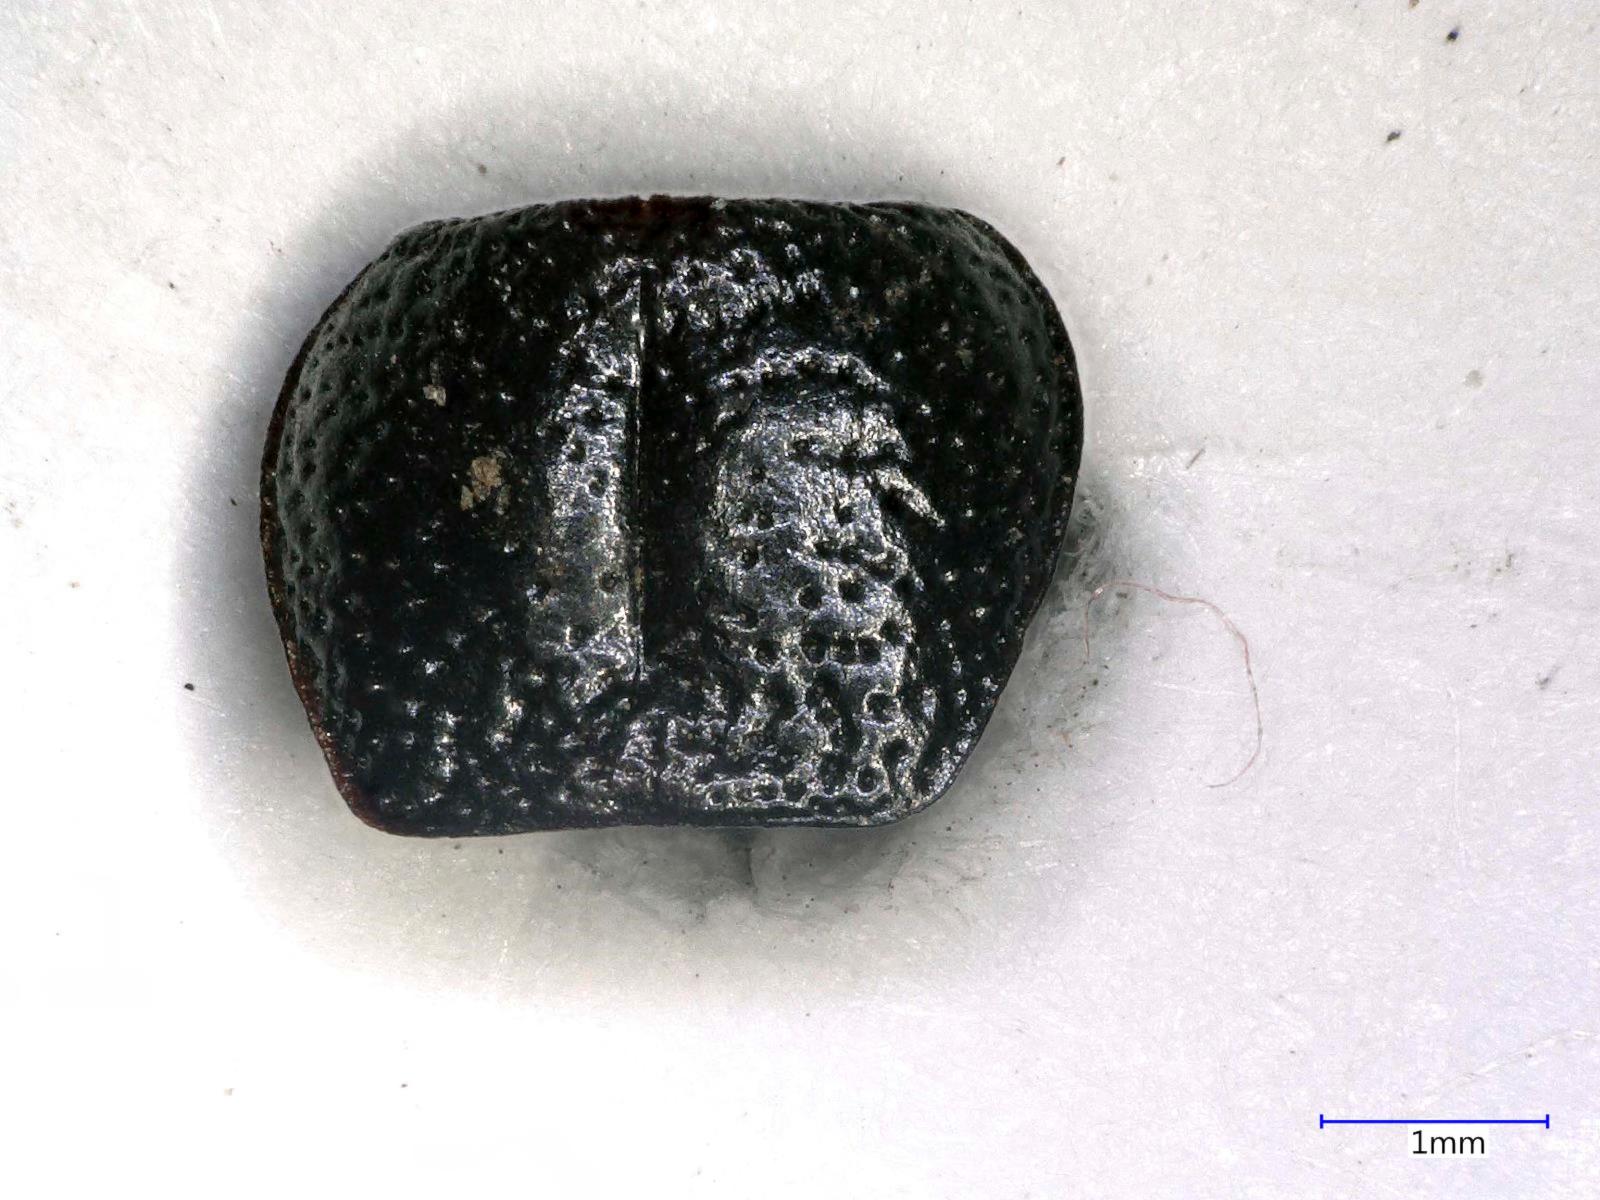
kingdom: Animalia
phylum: Arthropoda
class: Insecta
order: Coleoptera
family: Carabidae
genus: Dicheirus
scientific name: Dicheirus dilatatus
